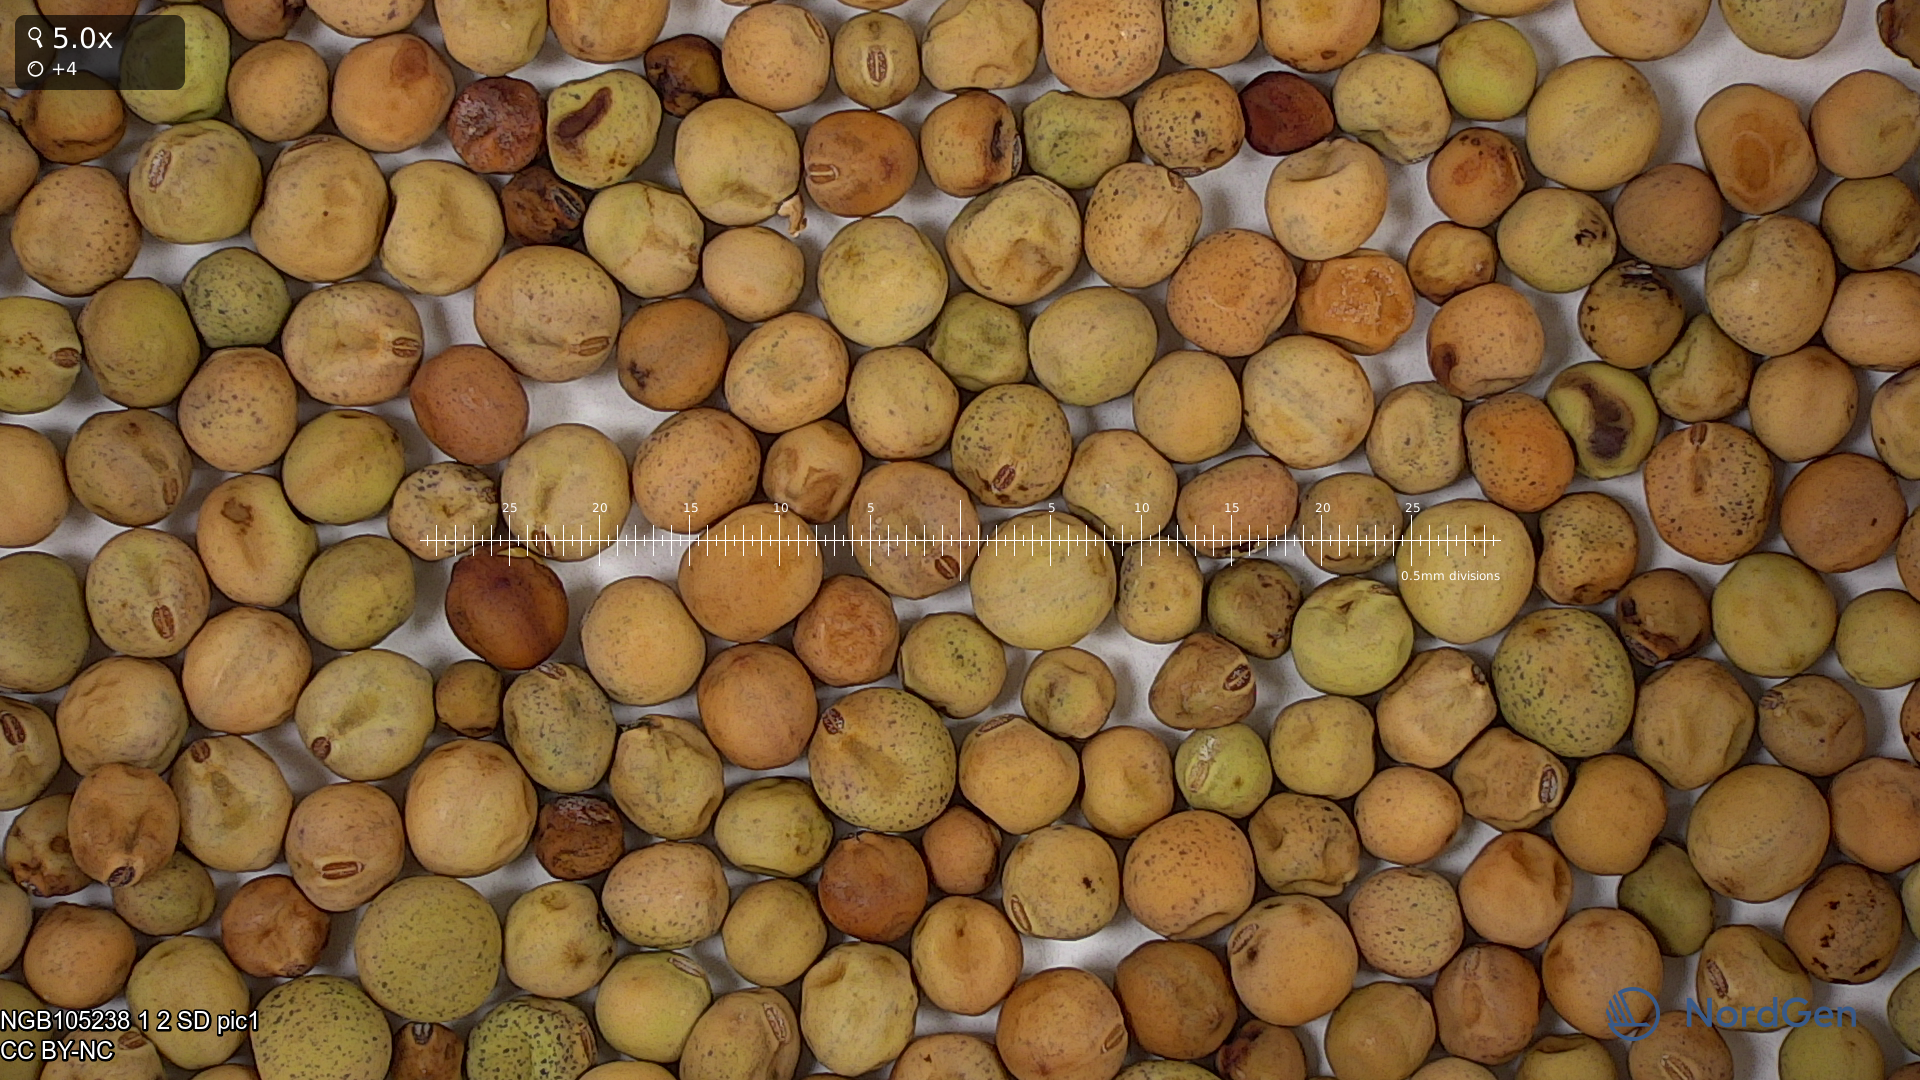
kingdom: Plantae
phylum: Tracheophyta
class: Magnoliopsida
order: Fabales
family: Fabaceae
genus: Lathyrus
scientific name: Lathyrus oleraceus
